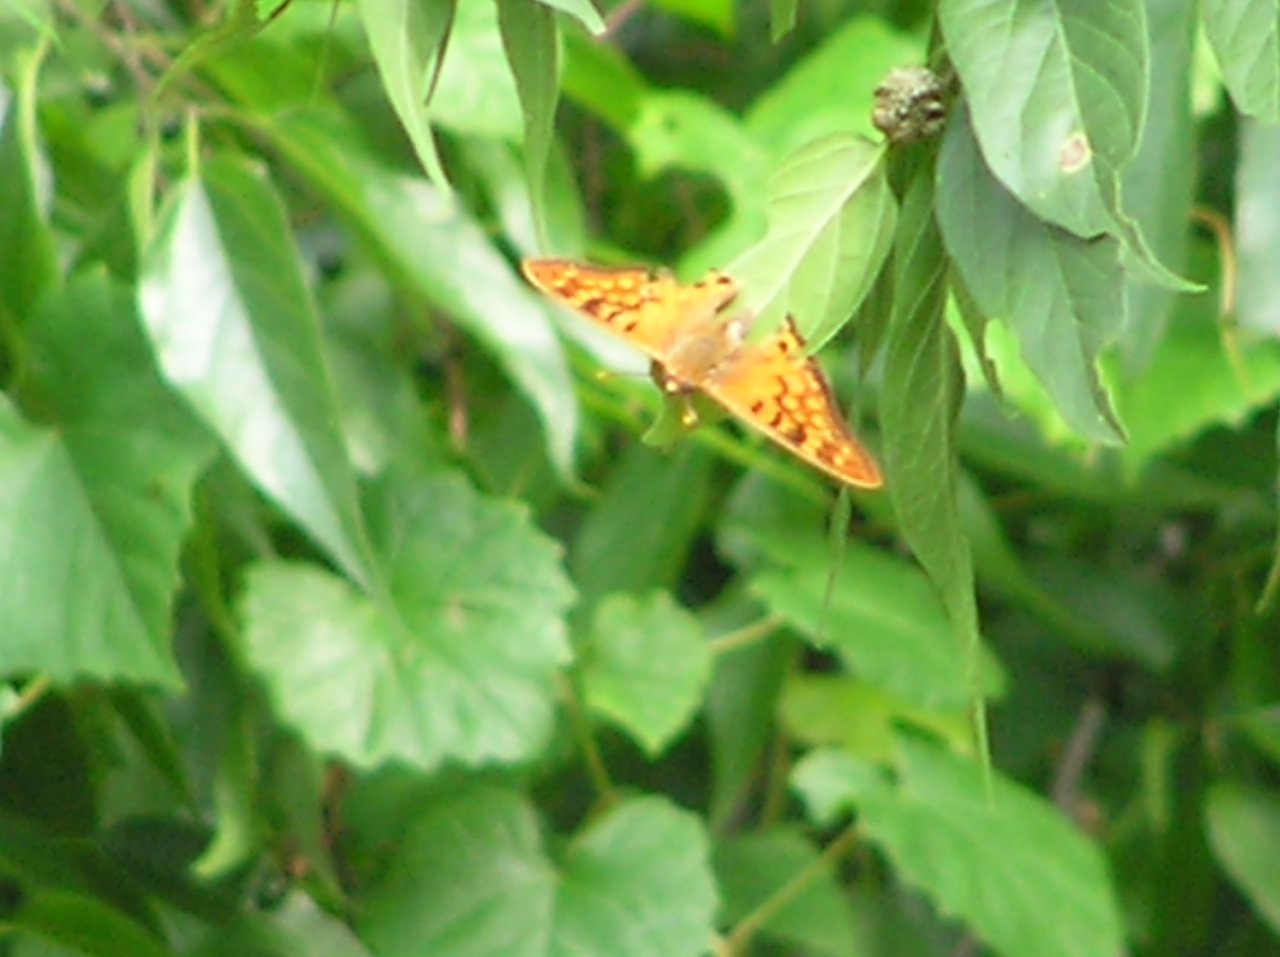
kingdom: Animalia
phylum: Arthropoda
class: Insecta
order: Lepidoptera
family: Nymphalidae
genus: Asterocampa
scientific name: Asterocampa clyton
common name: Tawny Emperor
